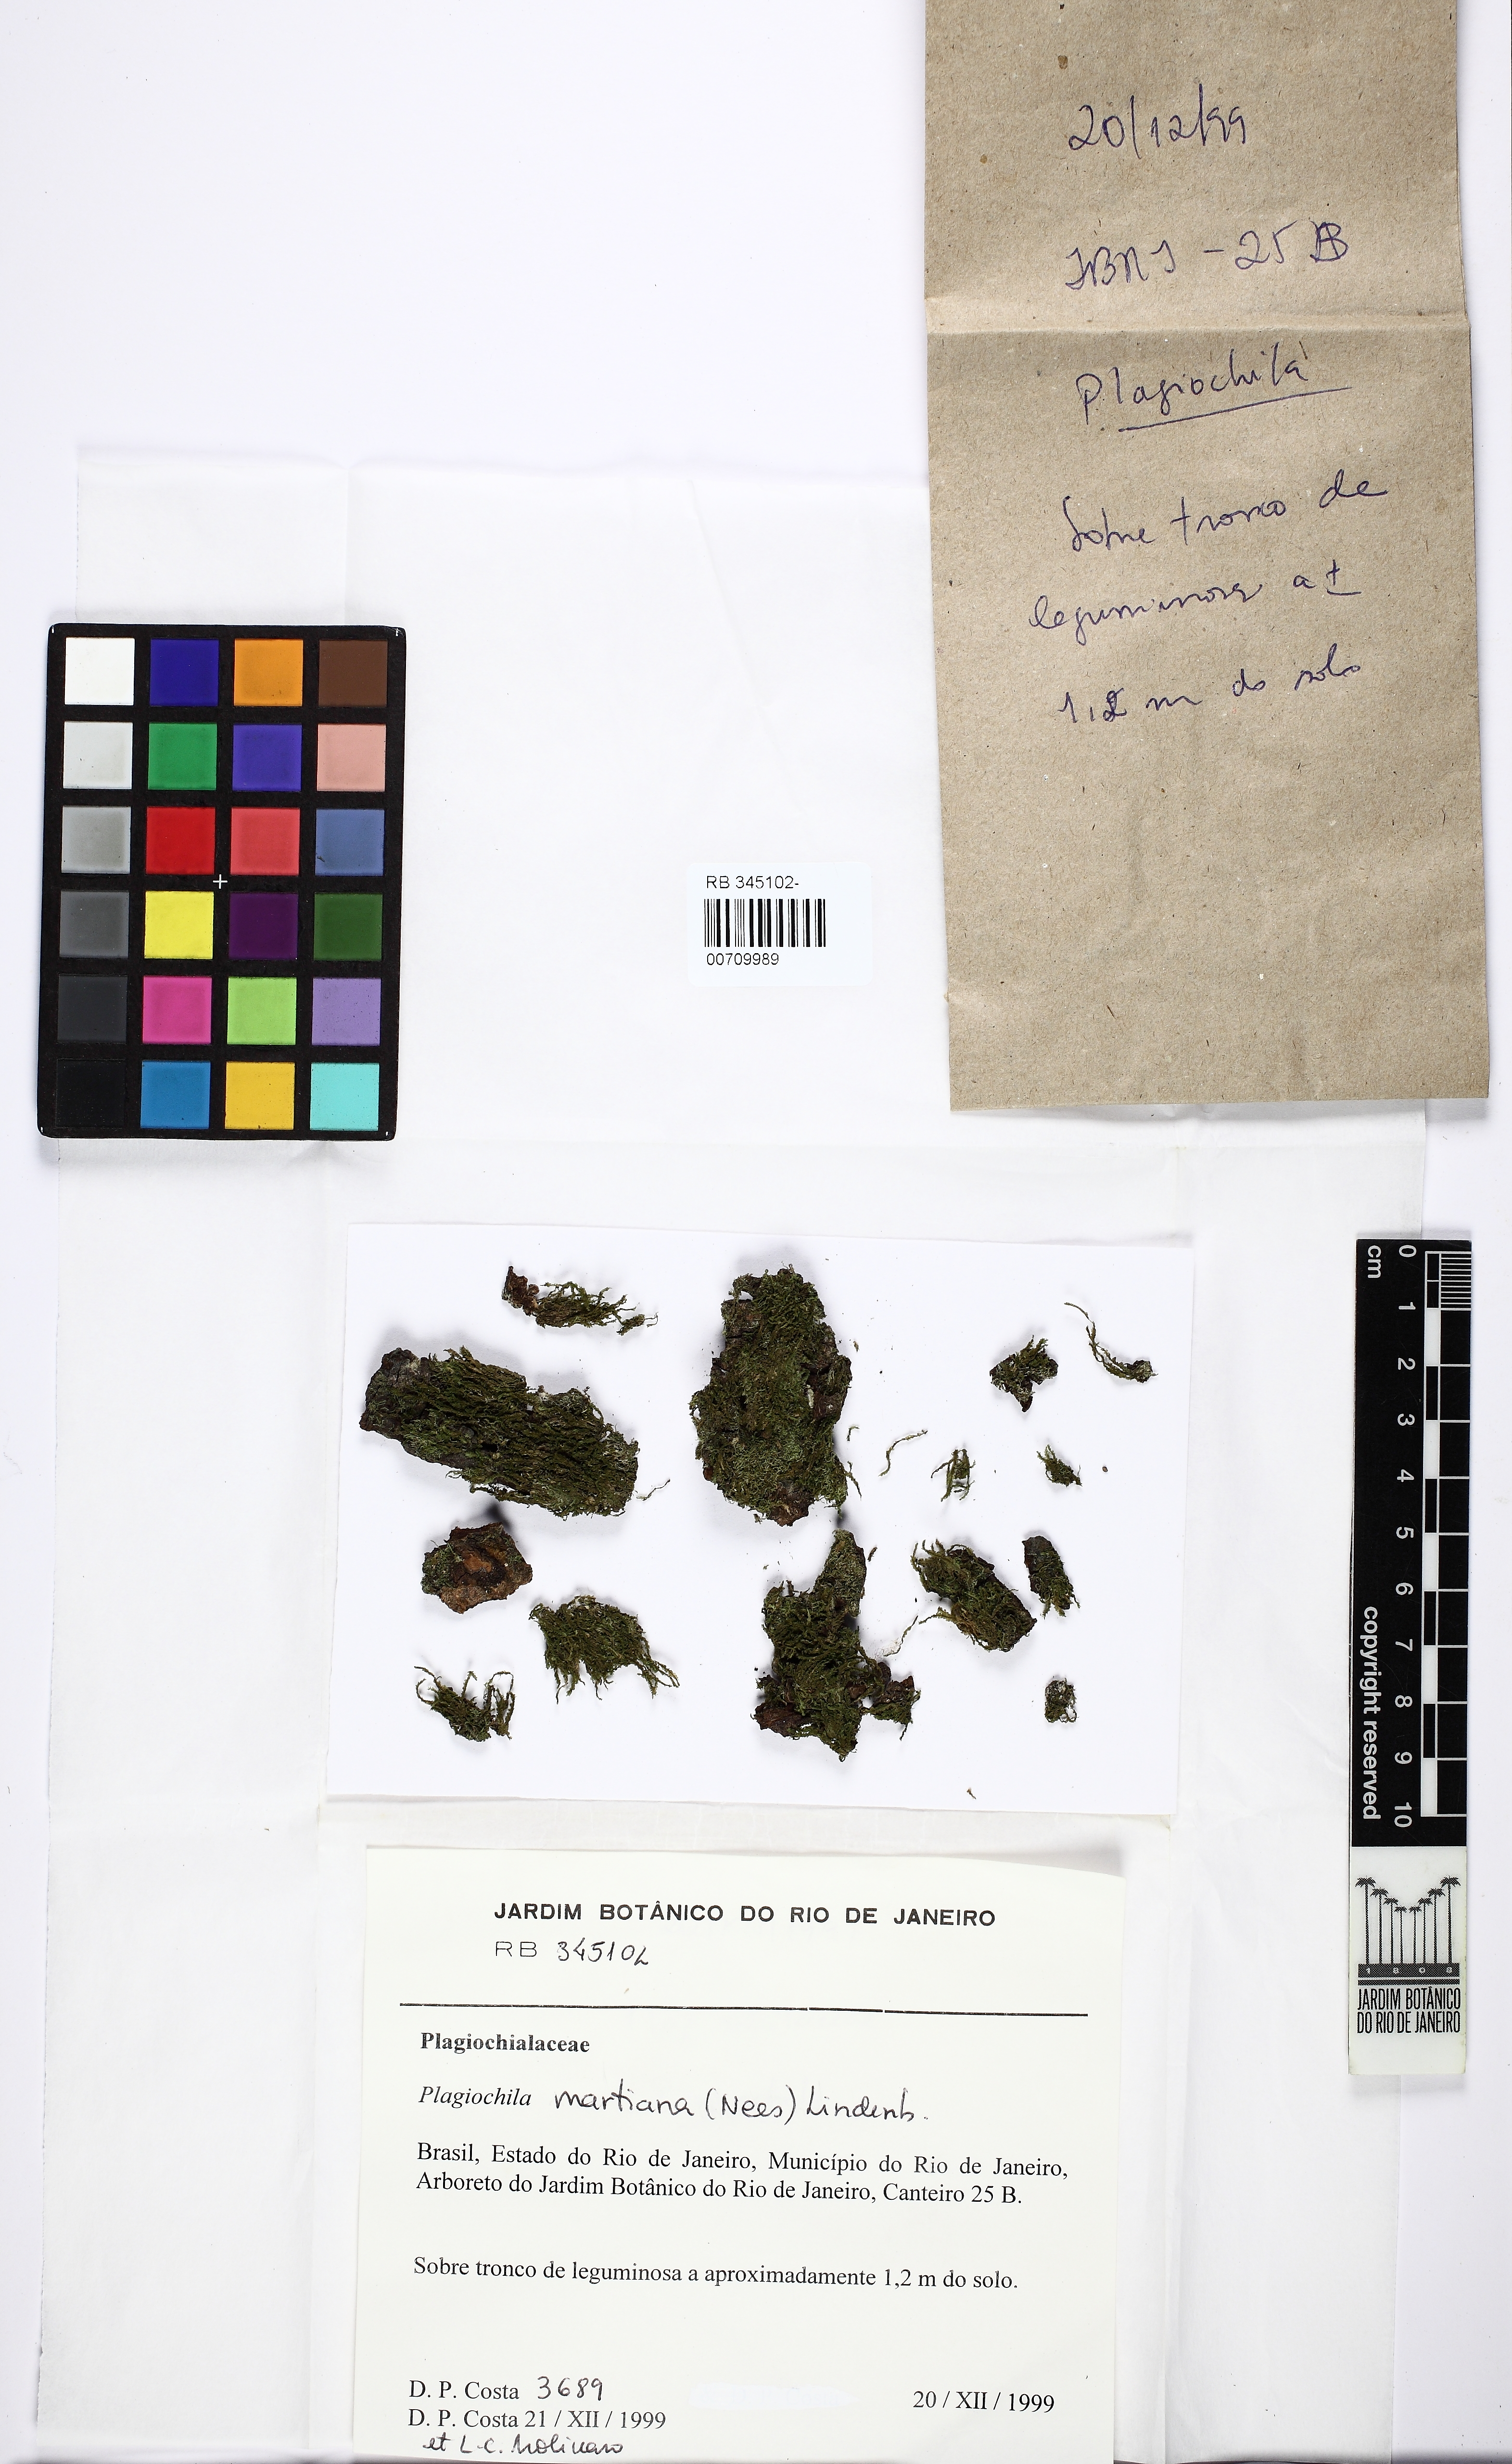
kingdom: Plantae
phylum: Marchantiophyta
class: Jungermanniopsida
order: Jungermanniales
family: Plagiochilaceae
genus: Plagiochila
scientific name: Plagiochila patula
